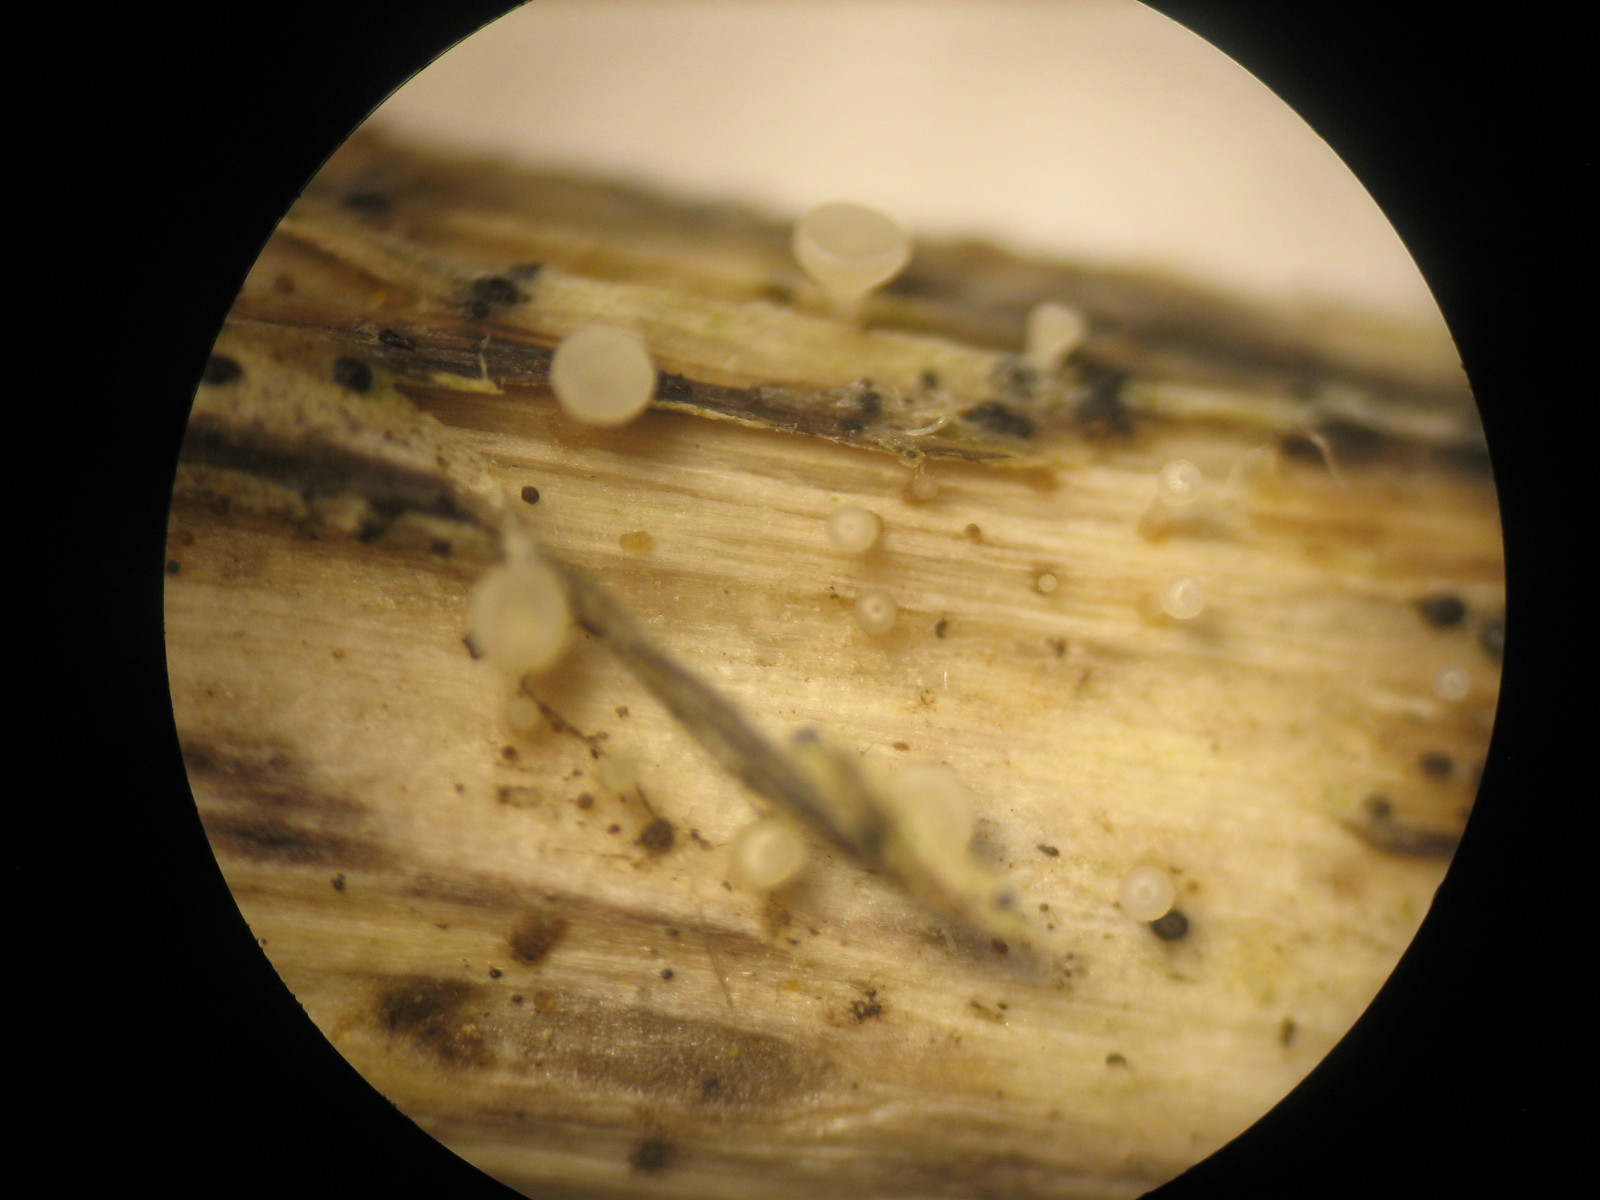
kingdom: Fungi
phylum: Ascomycota
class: Leotiomycetes
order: Helotiales
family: Helotiaceae
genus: Cyathicula
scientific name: Cyathicula cyathoidea
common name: pokal-stilkskive
